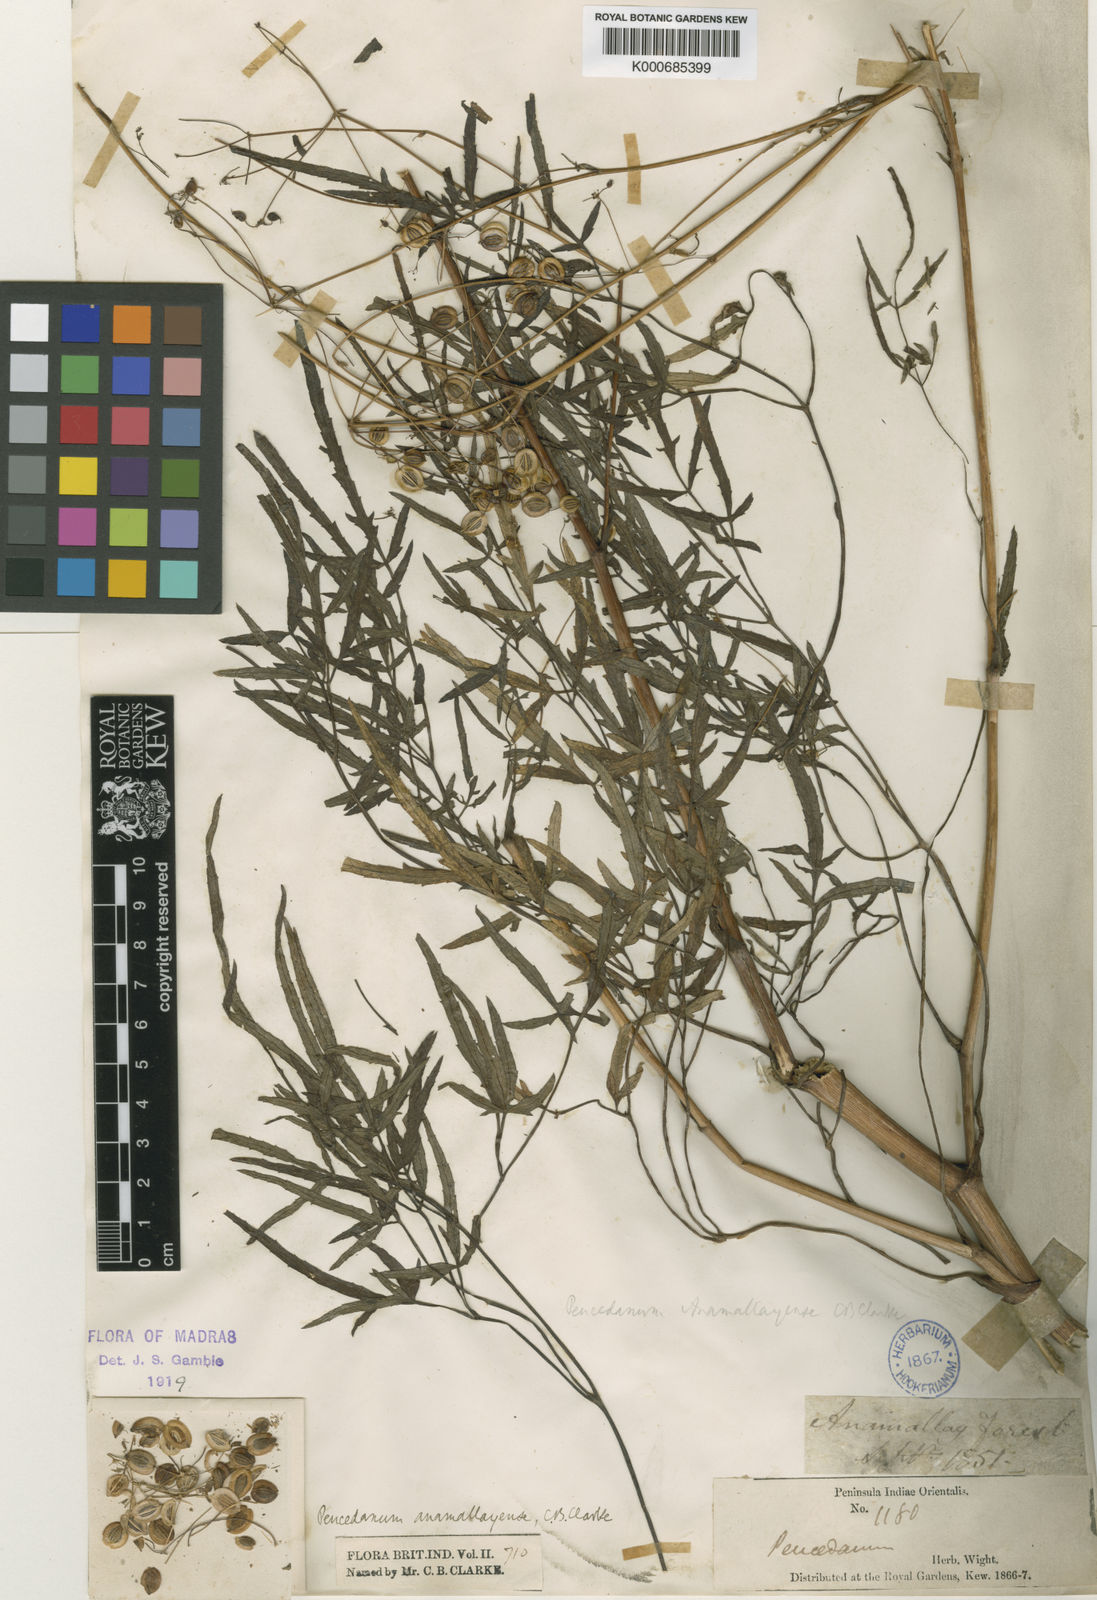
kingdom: Plantae
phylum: Tracheophyta
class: Magnoliopsida
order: Apiales
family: Apiaceae
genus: Peucedanum
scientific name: Peucedanum anamallayense
